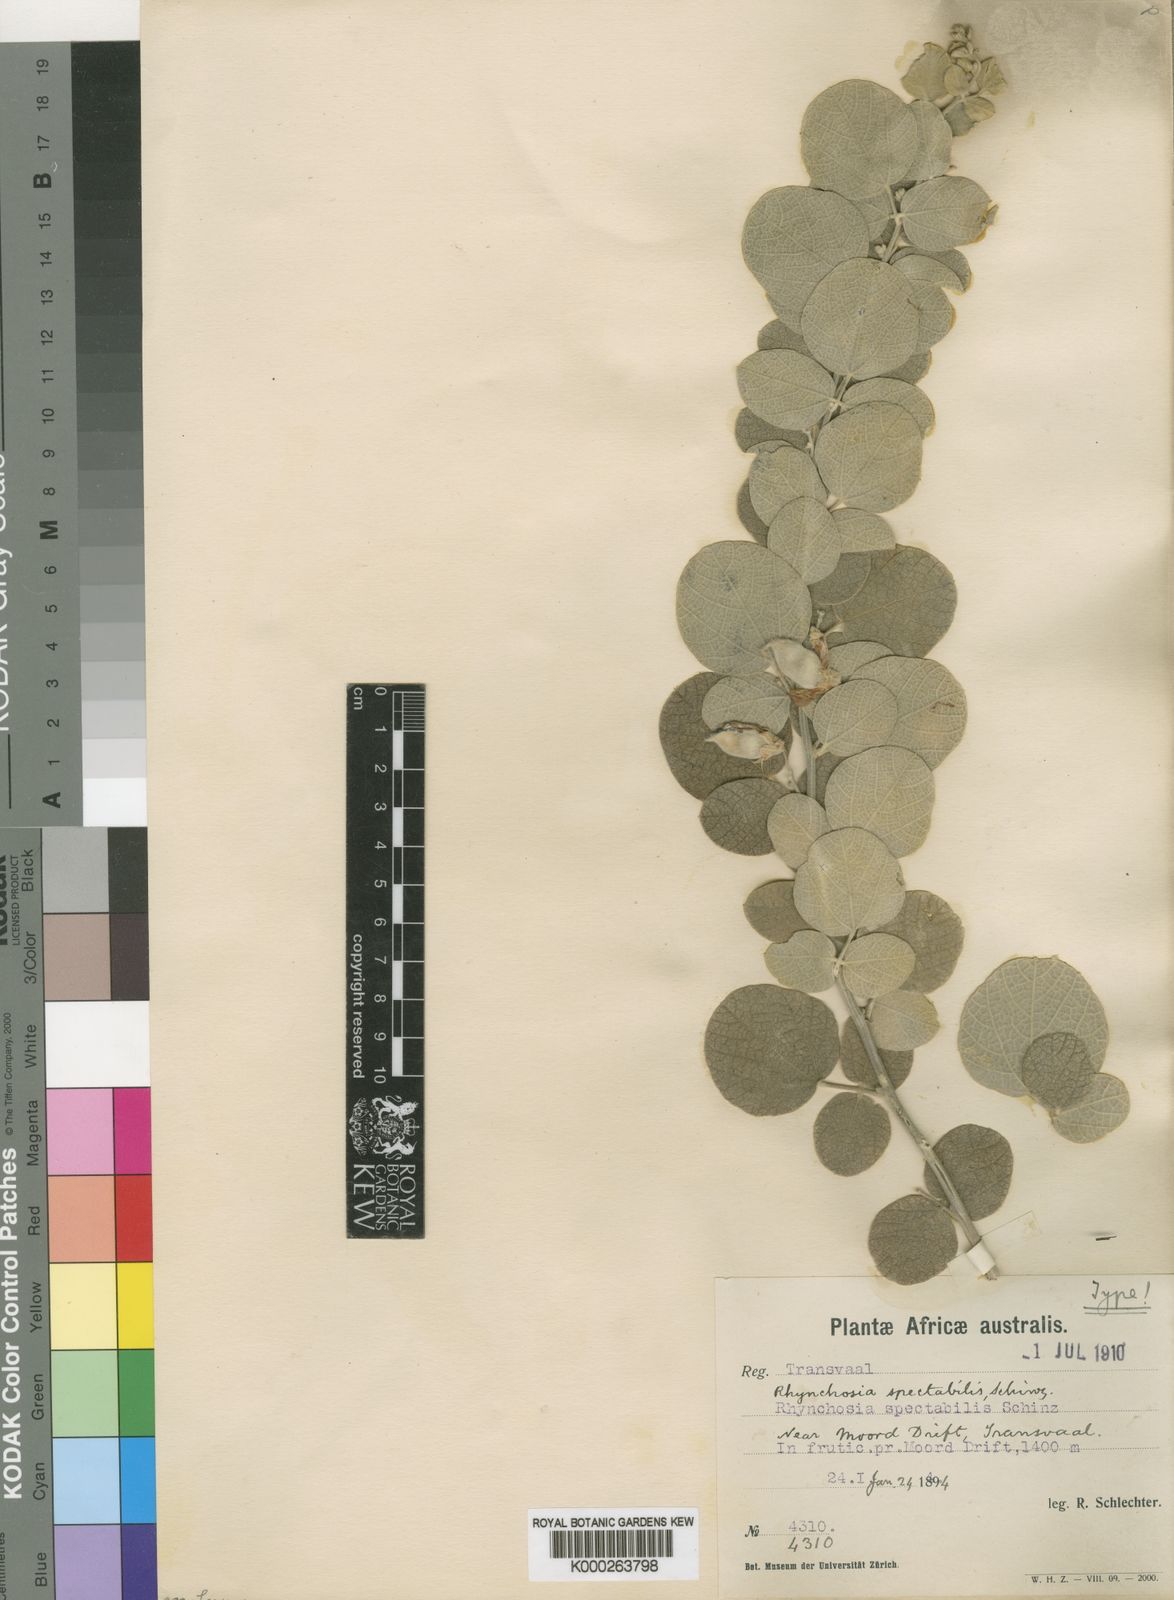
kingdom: Plantae
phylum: Tracheophyta
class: Magnoliopsida
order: Fabales
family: Fabaceae
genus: Rhynchosia
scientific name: Rhynchosia spectabilis
